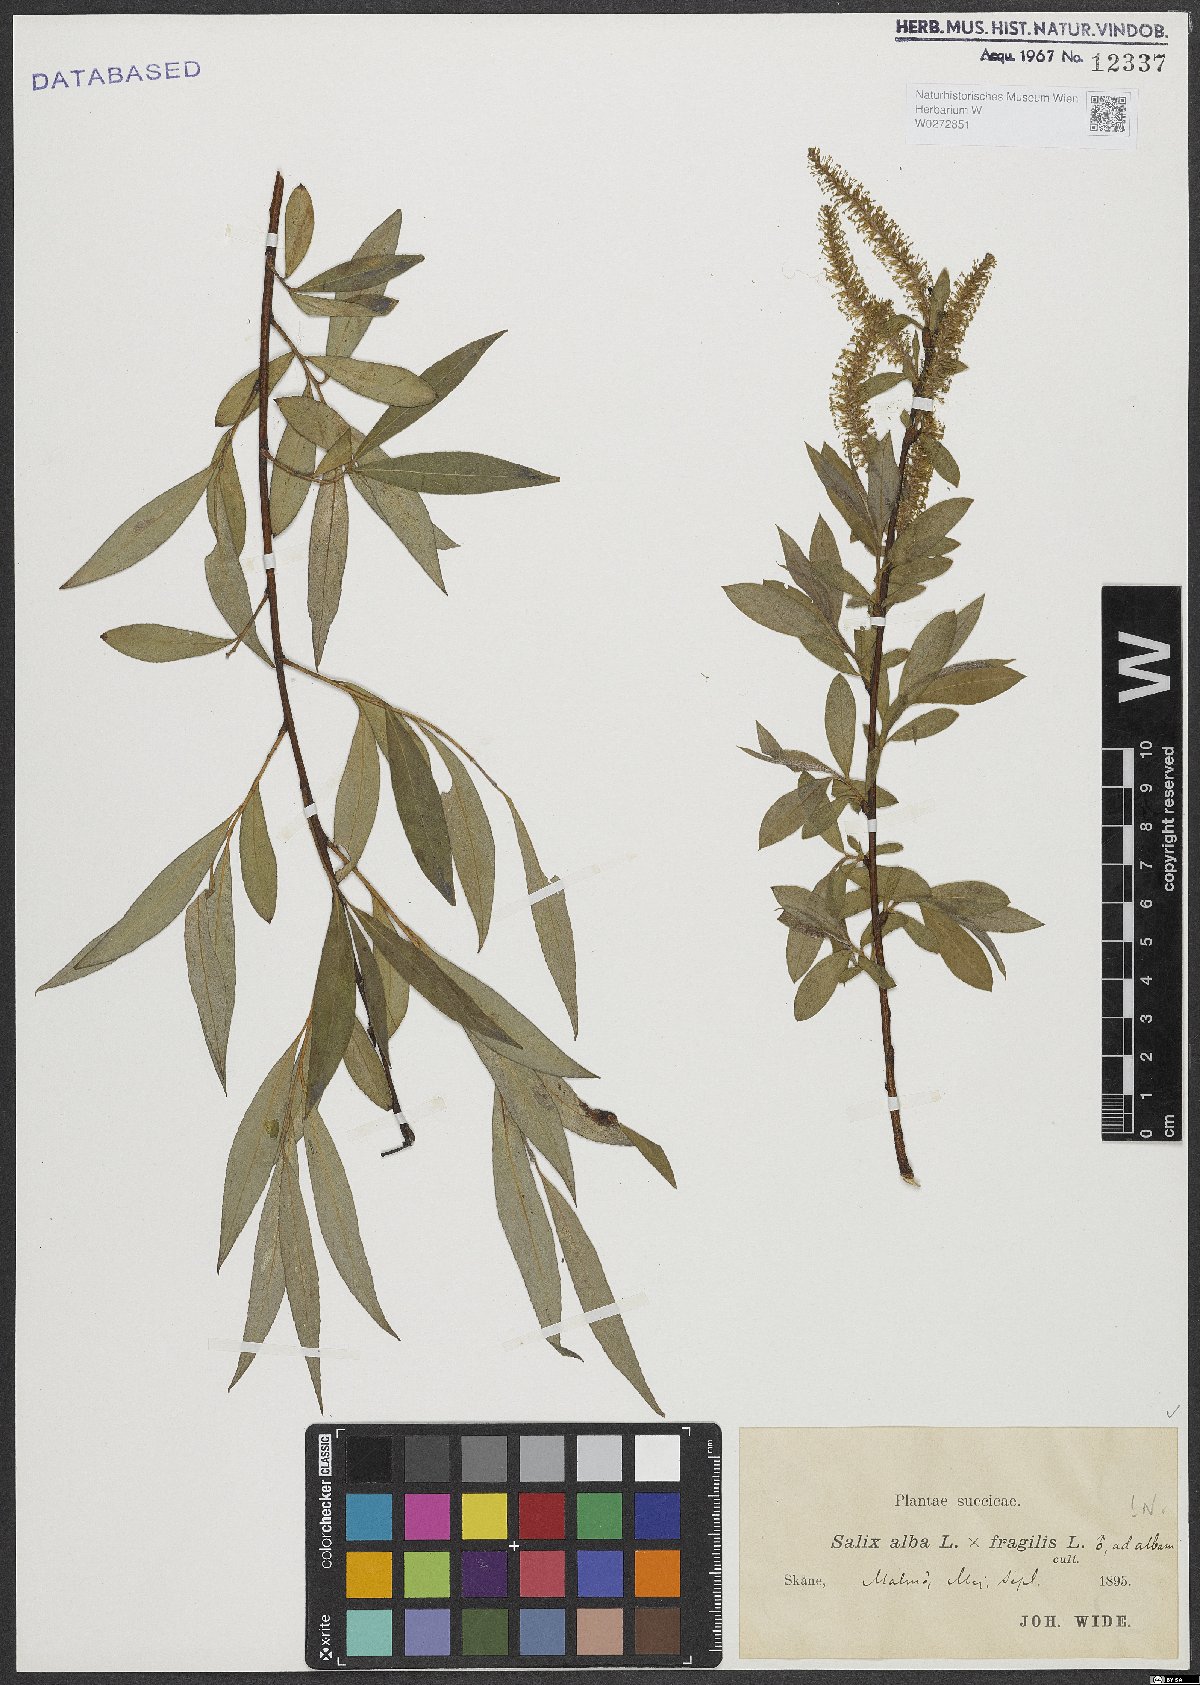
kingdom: Plantae
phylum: Tracheophyta
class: Magnoliopsida
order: Malpighiales
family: Salicaceae
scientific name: Salicaceae
